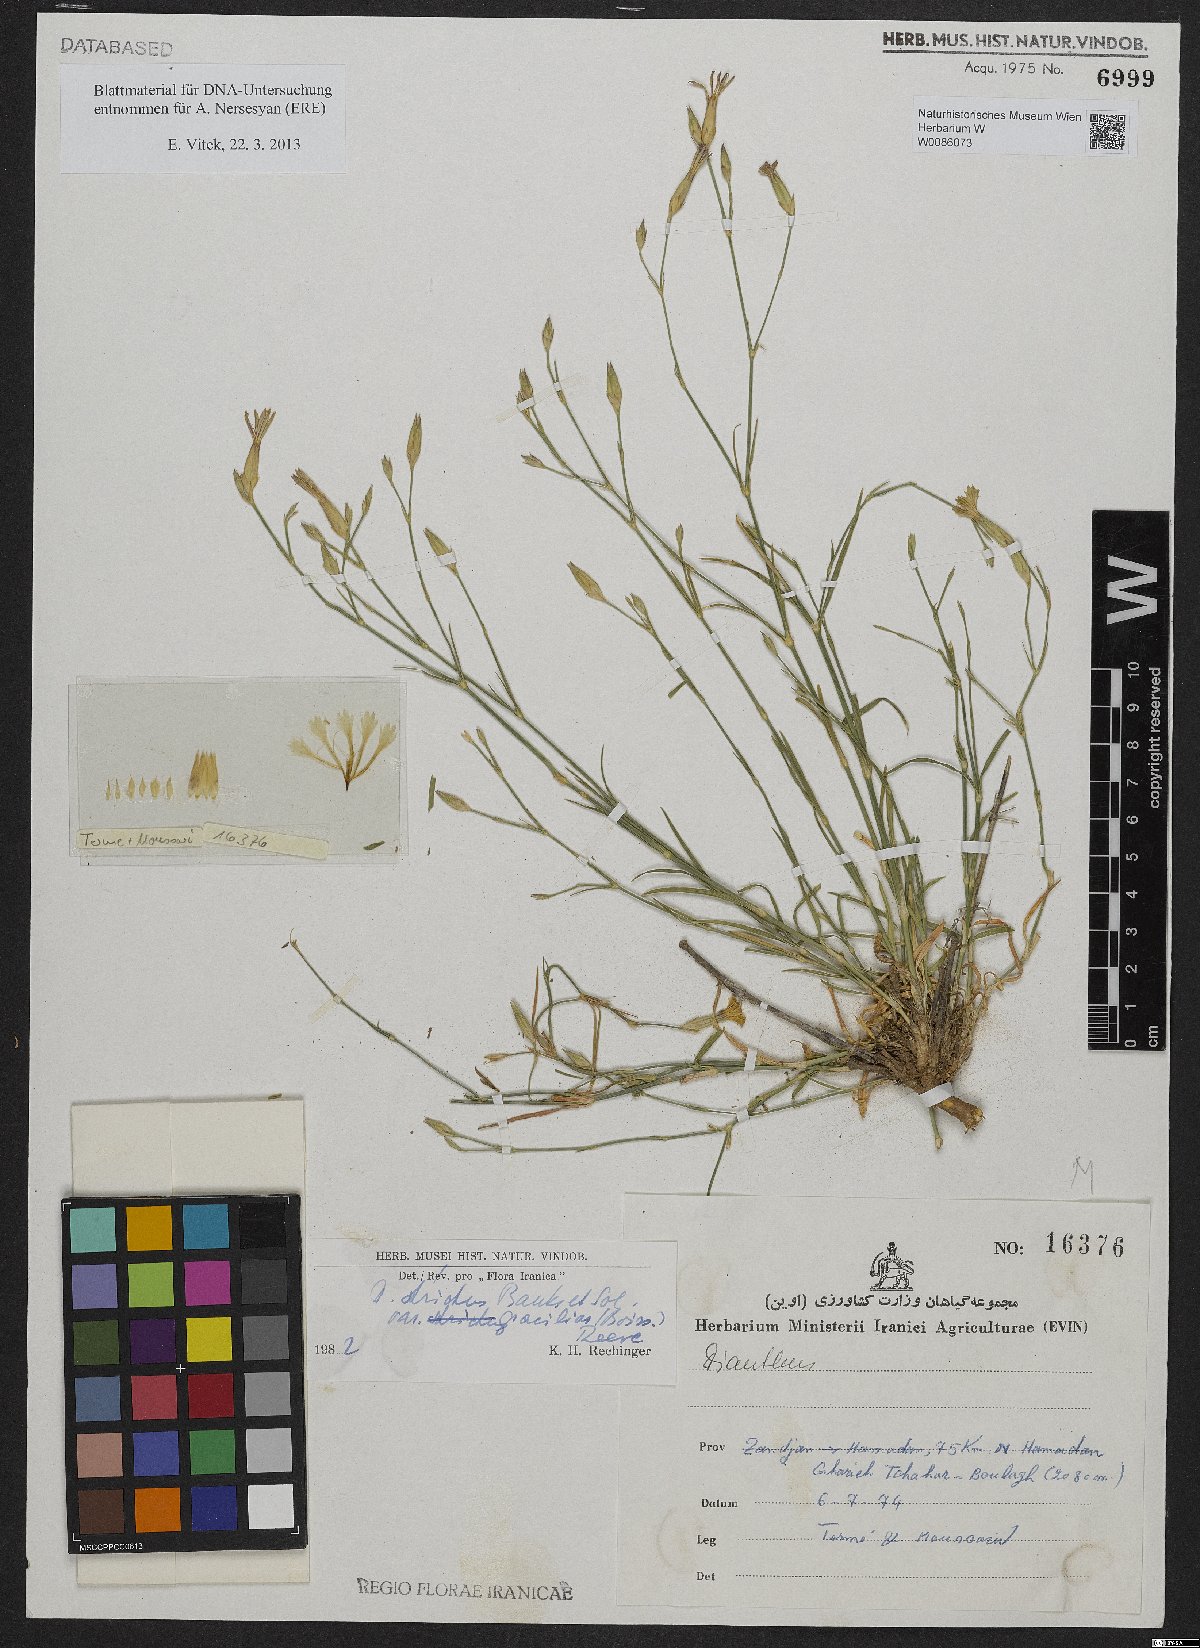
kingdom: Plantae
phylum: Tracheophyta
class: Magnoliopsida
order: Caryophyllales
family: Caryophyllaceae
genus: Dianthus
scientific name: Dianthus strictus
